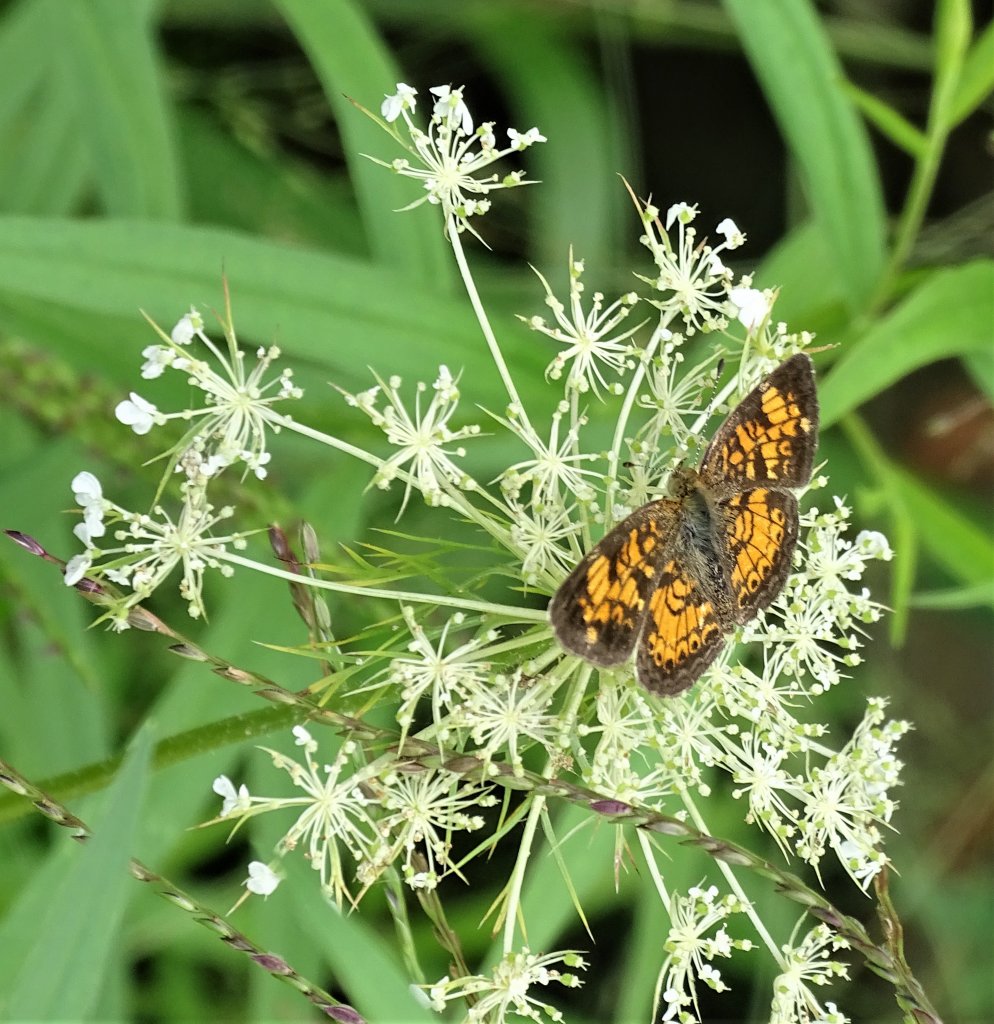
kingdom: Animalia
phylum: Arthropoda
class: Insecta
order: Lepidoptera
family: Nymphalidae
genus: Phyciodes
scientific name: Phyciodes
